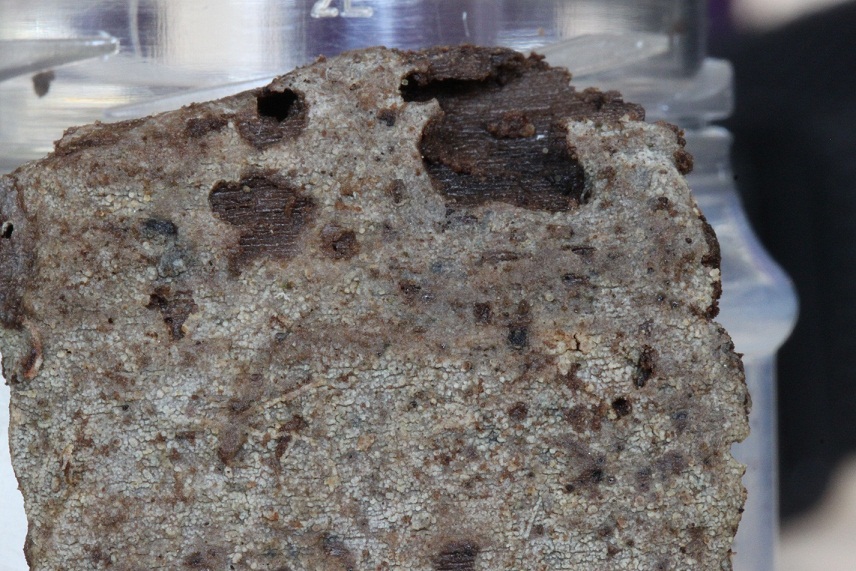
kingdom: Fungi
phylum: Basidiomycota
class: Agaricomycetes
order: Polyporales
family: Meruliaceae
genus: Scopuloides
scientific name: Scopuloides rimosa
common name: dughinde
